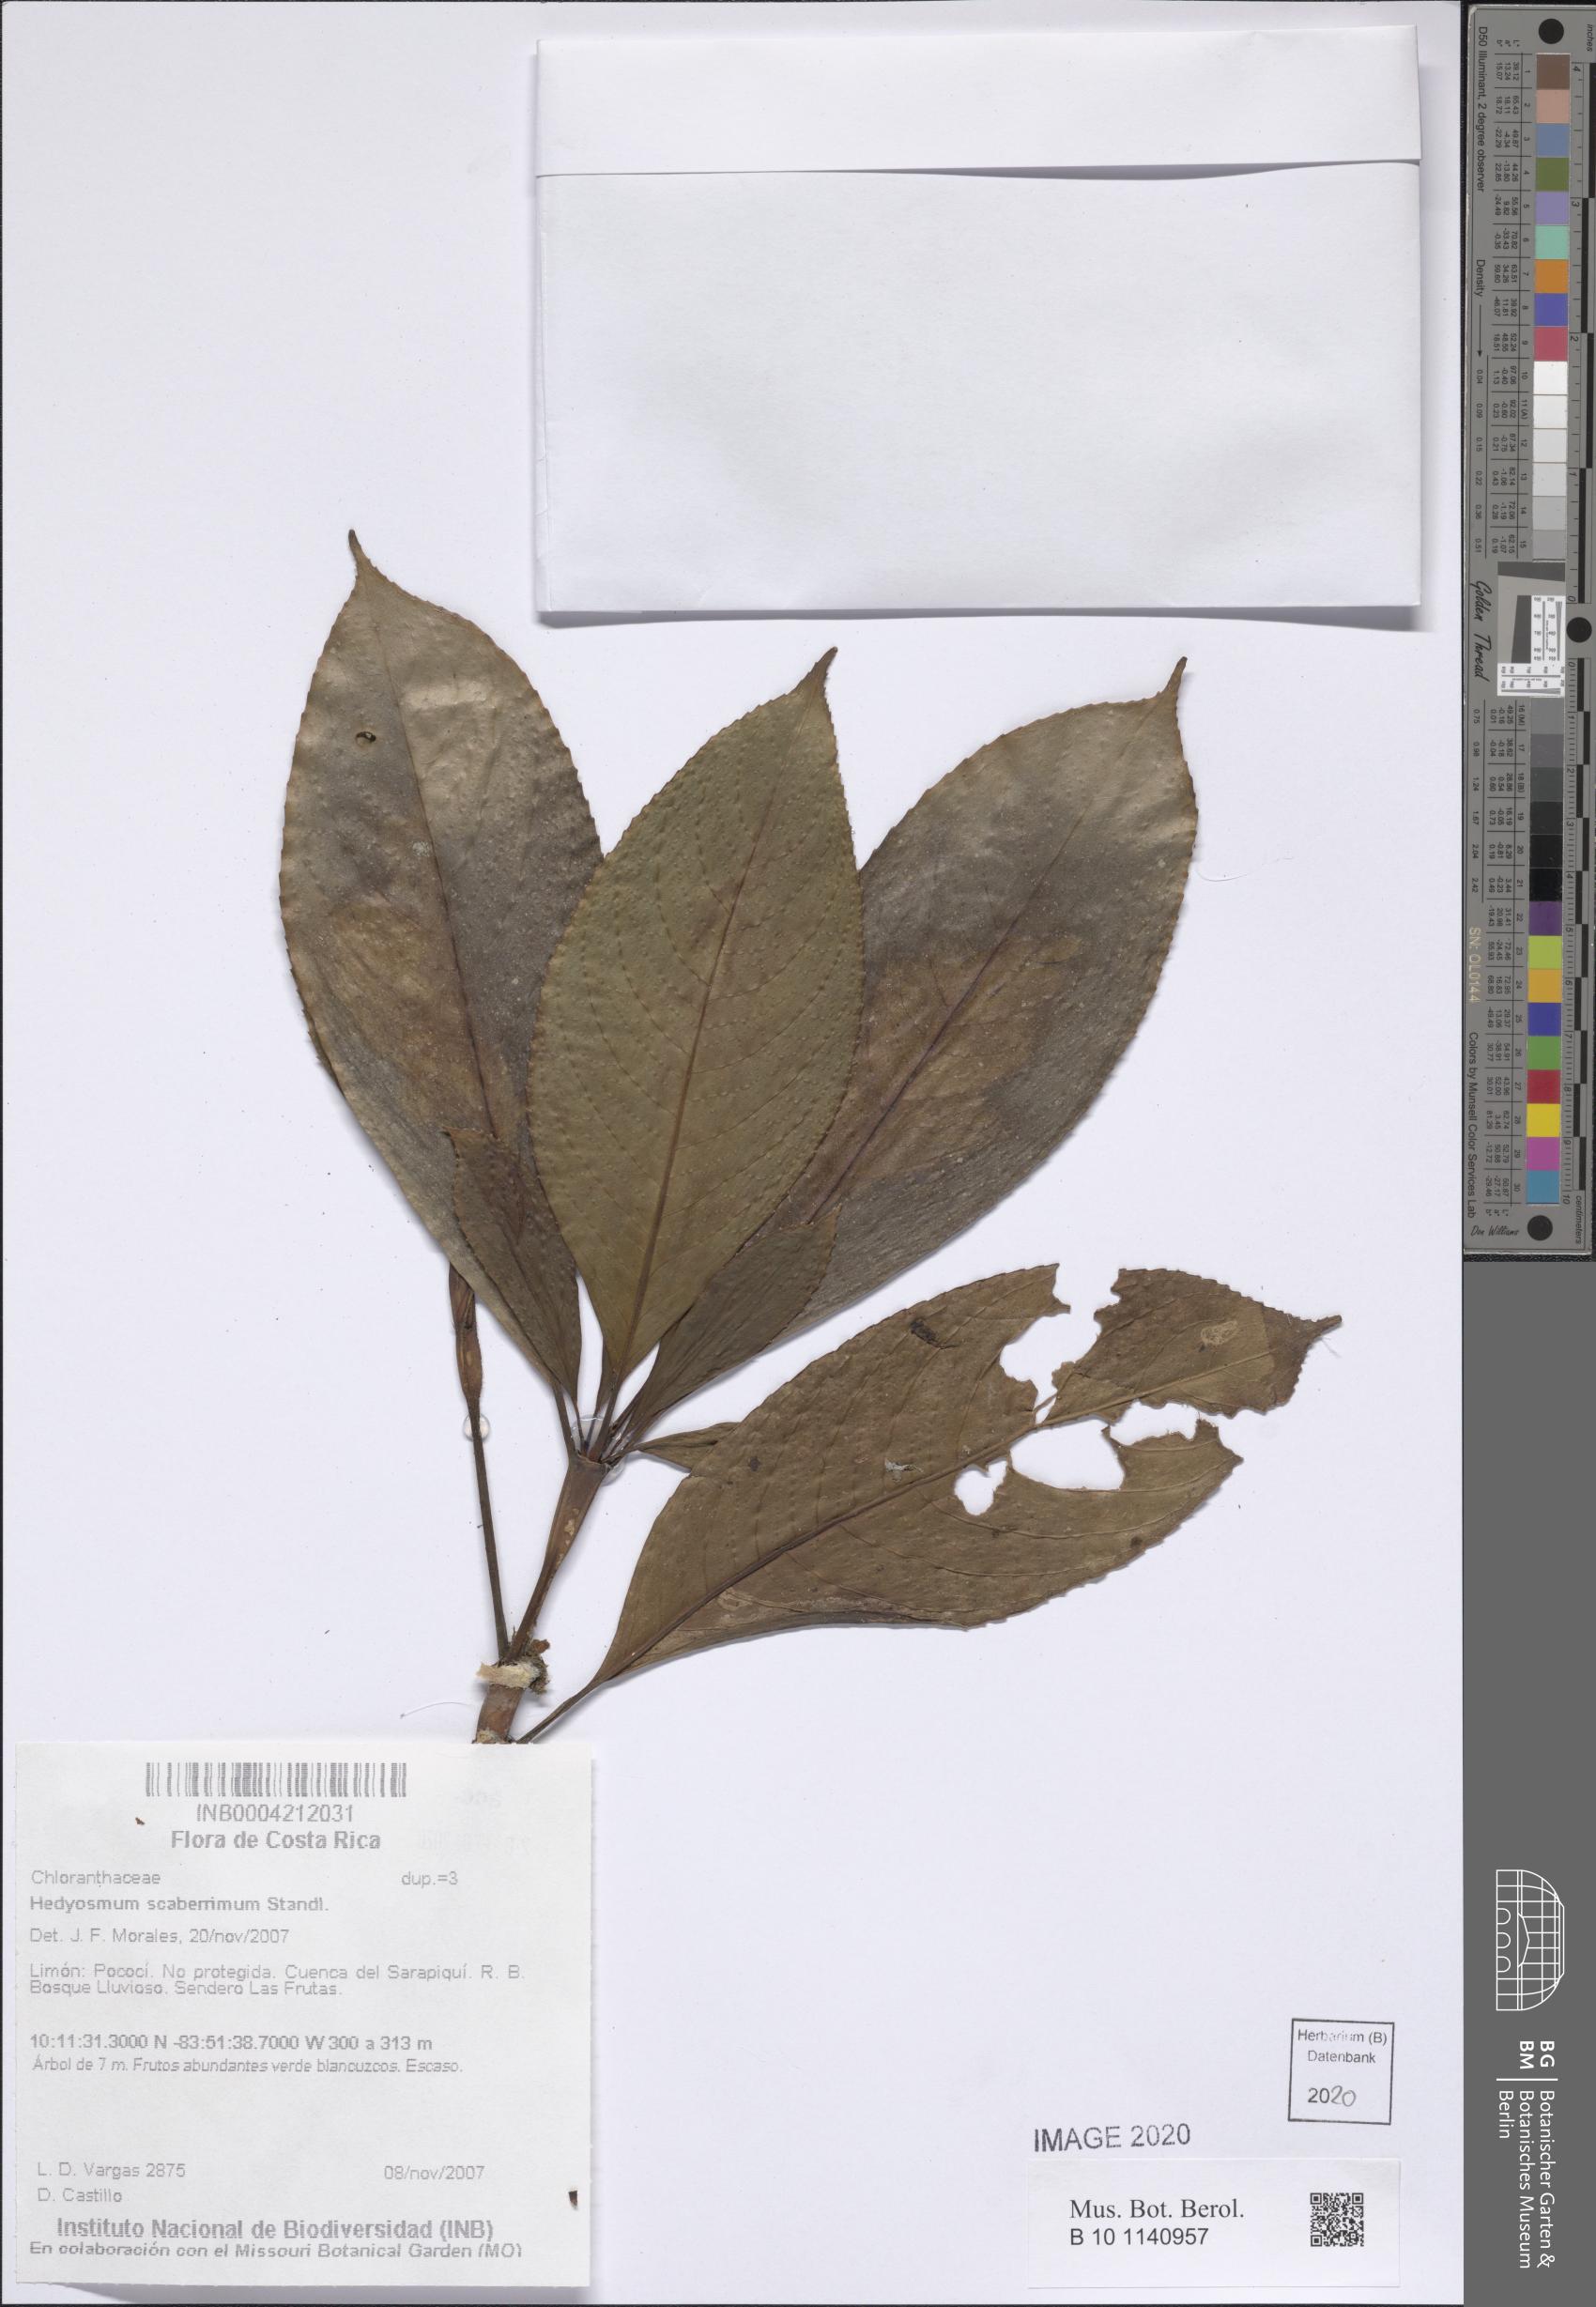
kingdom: Plantae
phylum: Tracheophyta
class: Magnoliopsida
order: Chloranthales
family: Chloranthaceae
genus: Hedyosmum
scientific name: Hedyosmum scaberrimum
